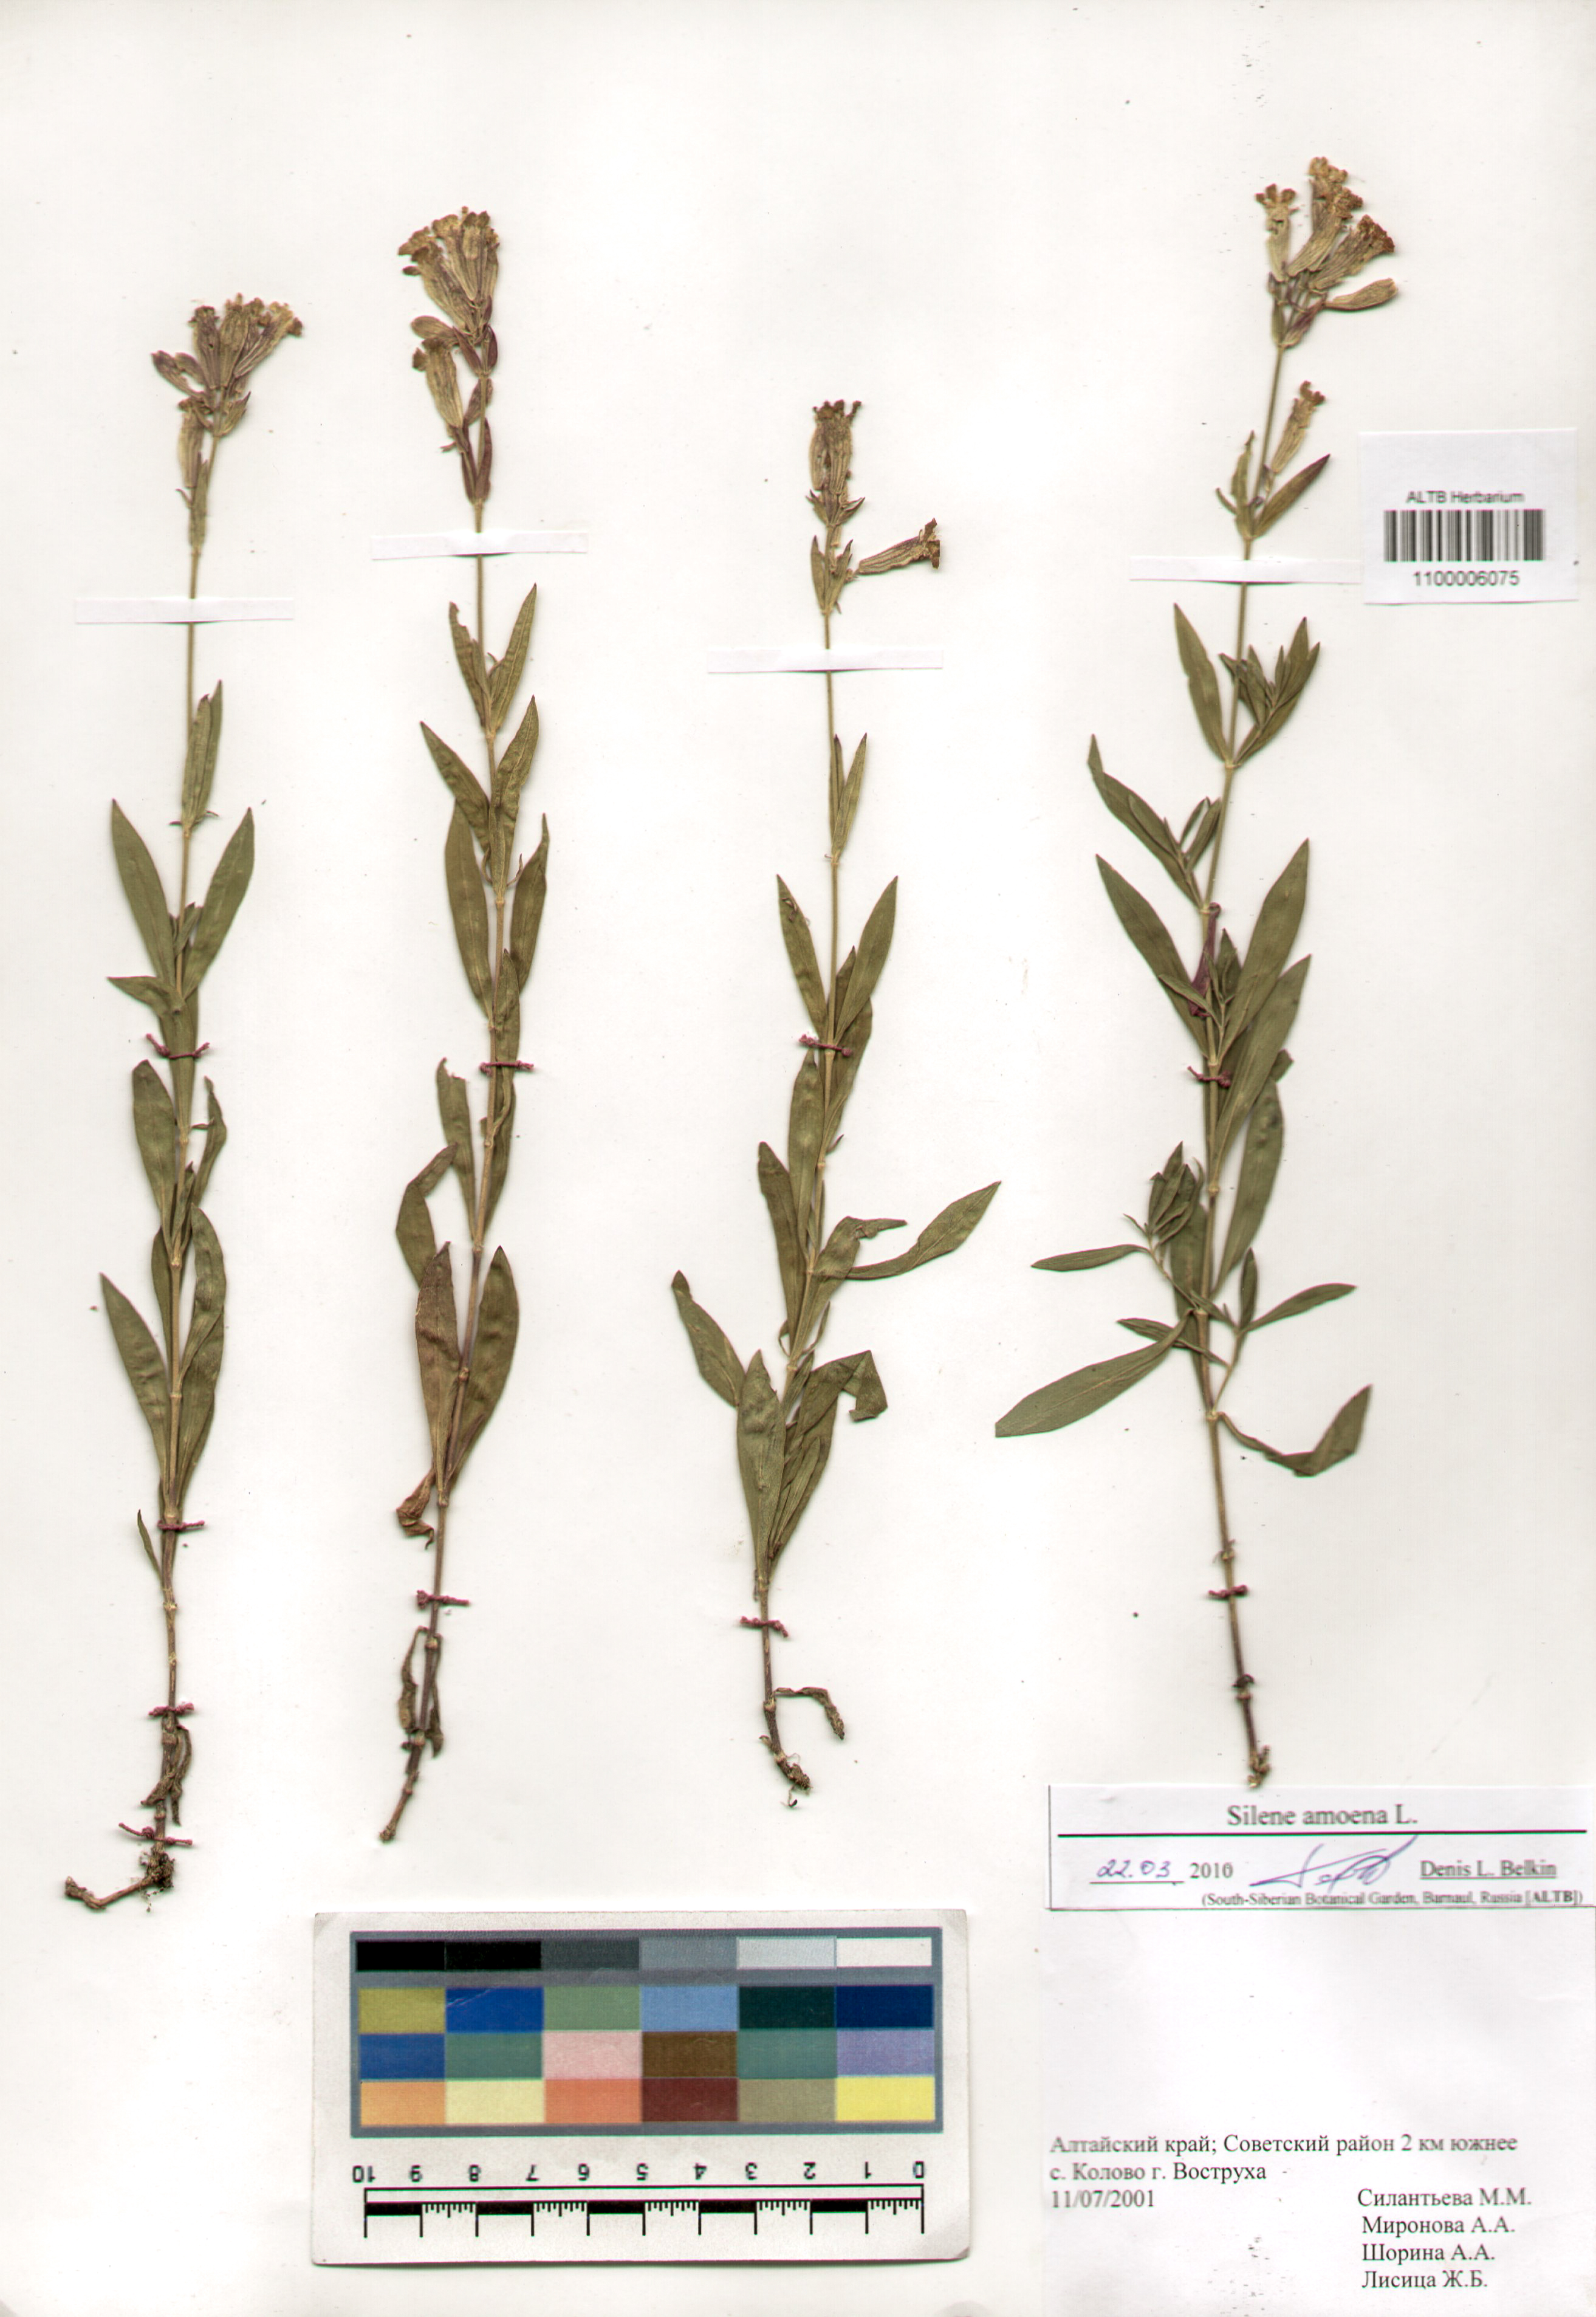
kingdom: Plantae
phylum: Tracheophyta
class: Magnoliopsida
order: Caryophyllales
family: Caryophyllaceae
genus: Silene
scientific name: Silene amoena
